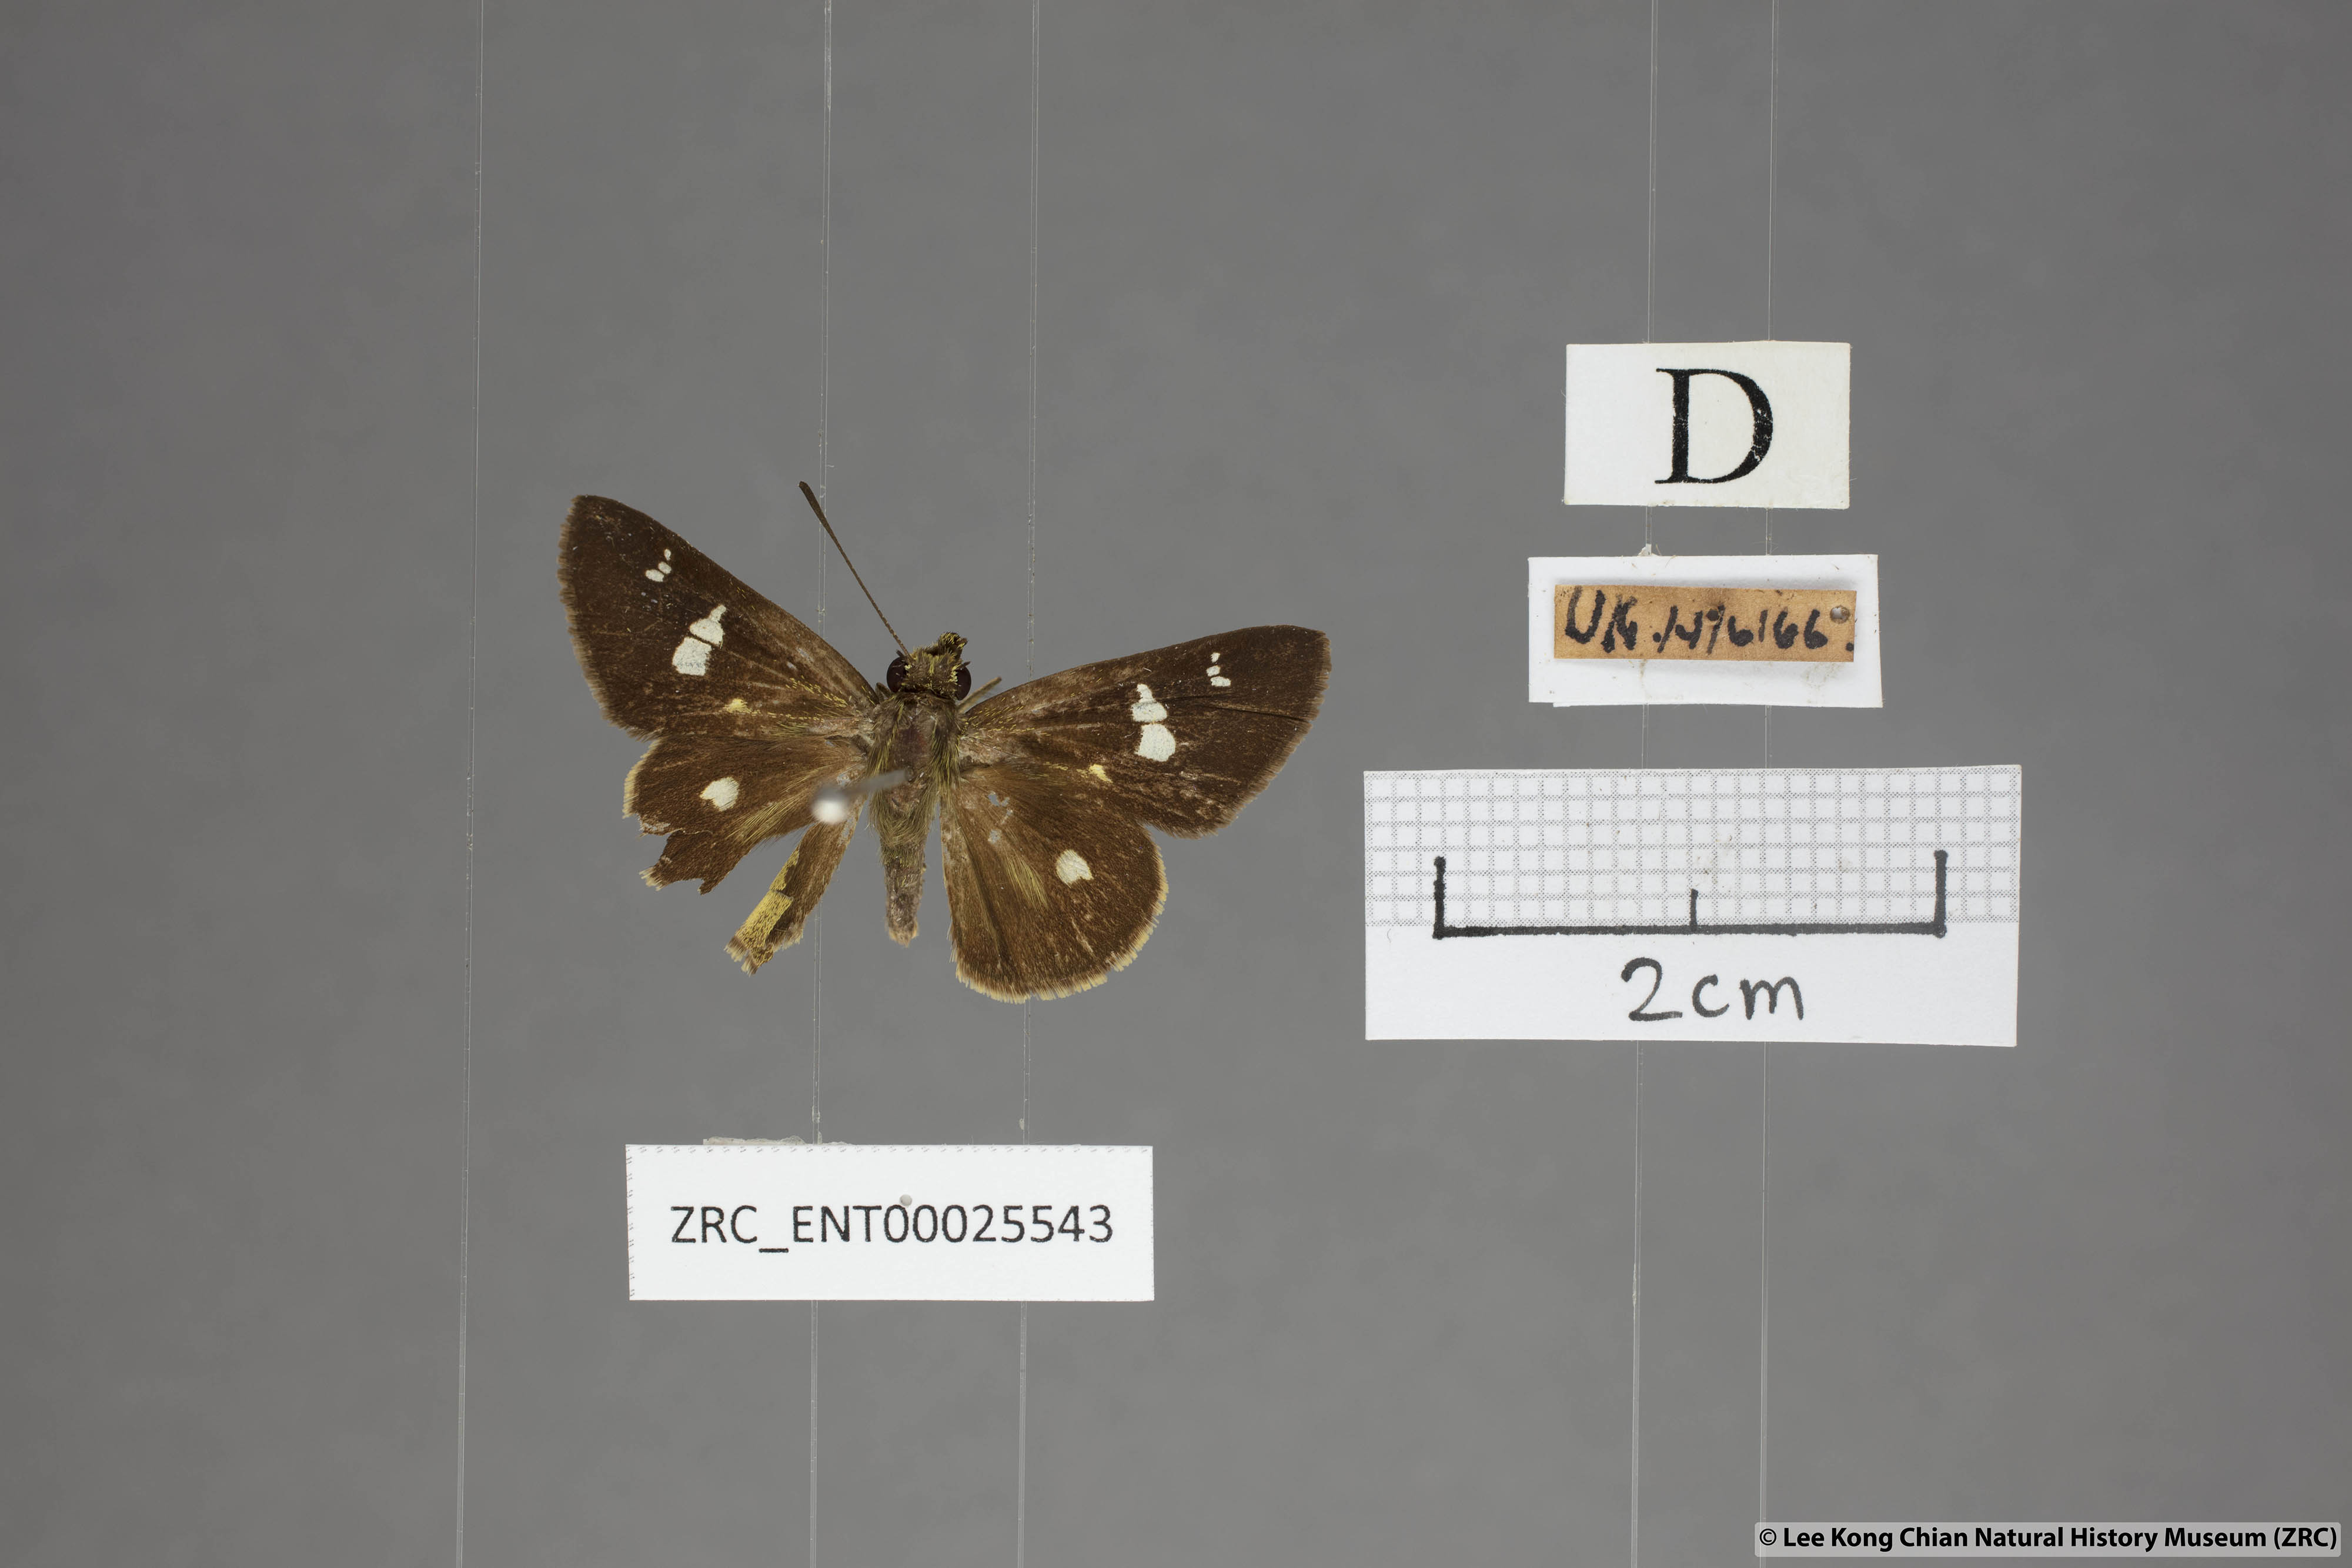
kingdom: Animalia
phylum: Arthropoda
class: Insecta
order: Lepidoptera
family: Hesperiidae
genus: Scobura
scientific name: Scobura phiditia
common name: Malay forest bob
